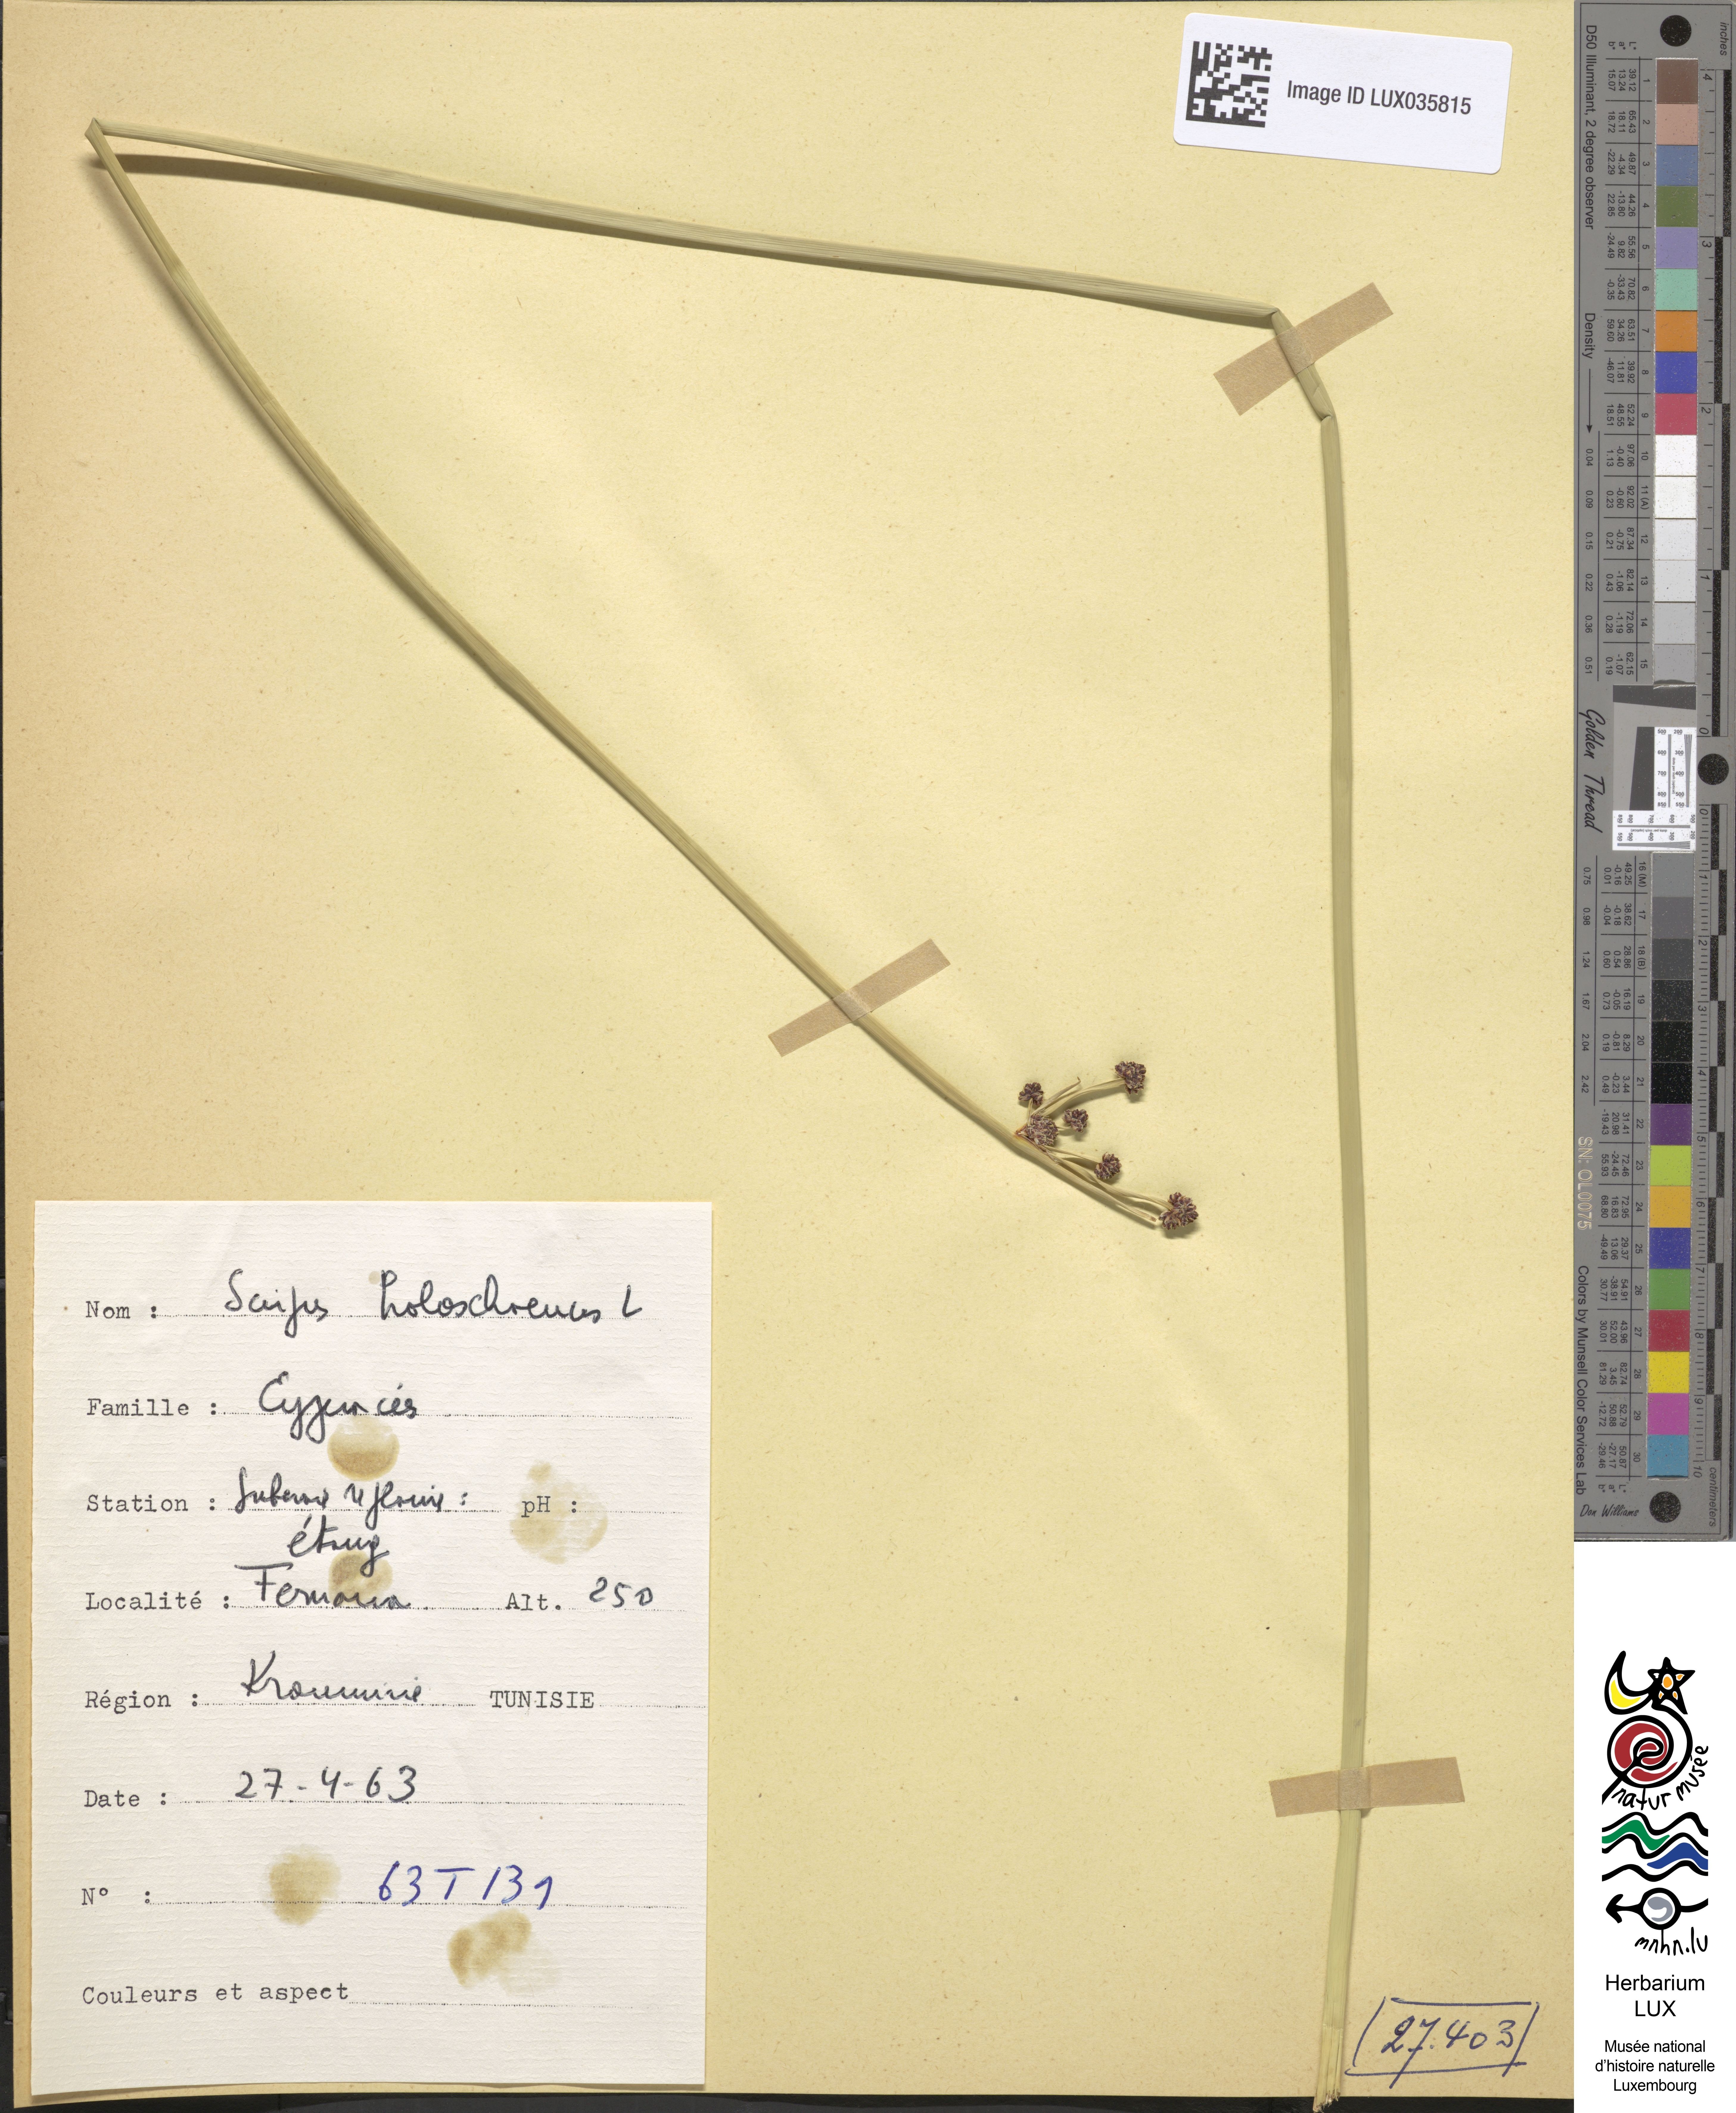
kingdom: Plantae
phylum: Tracheophyta
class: Liliopsida
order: Poales
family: Cyperaceae
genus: Scirpoides
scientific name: Scirpoides holoschoenus
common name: Round-headed club-rush
